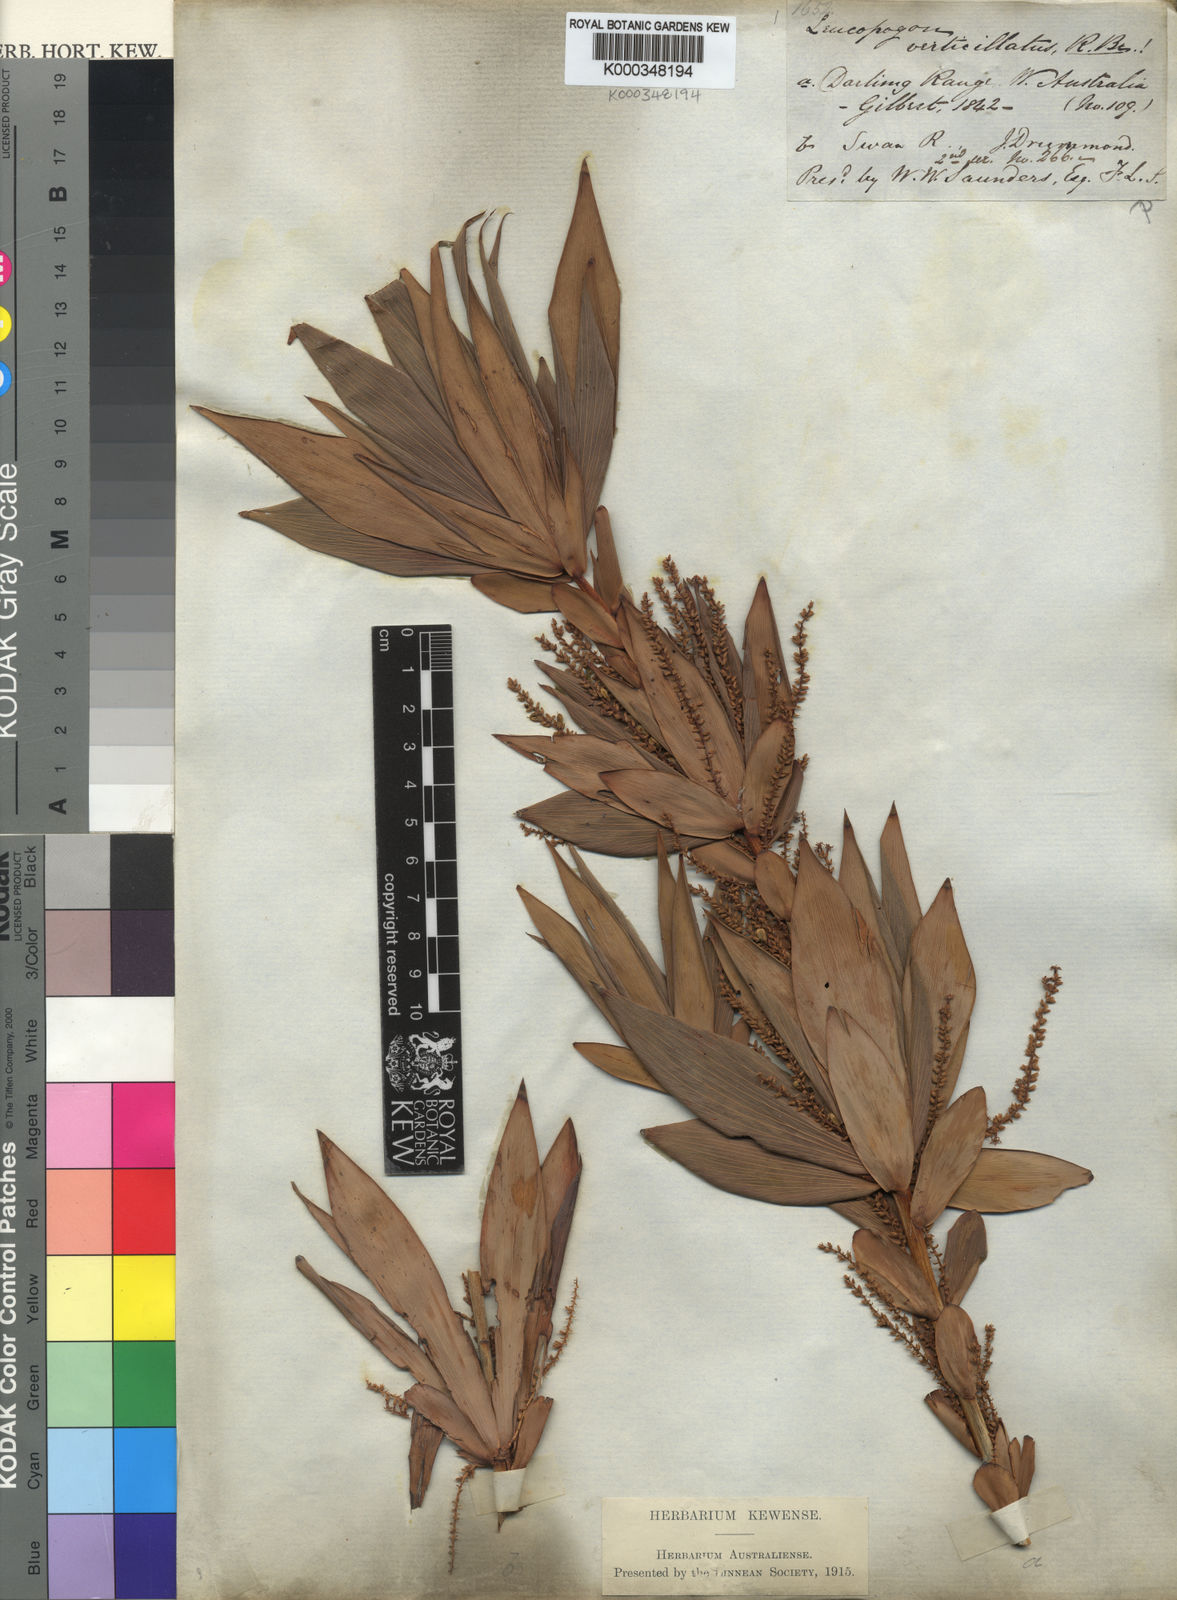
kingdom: Plantae
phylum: Tracheophyta
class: Magnoliopsida
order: Ericales
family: Ericaceae
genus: Leucopogon
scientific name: Leucopogon verticillatus
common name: Tasselshrub
